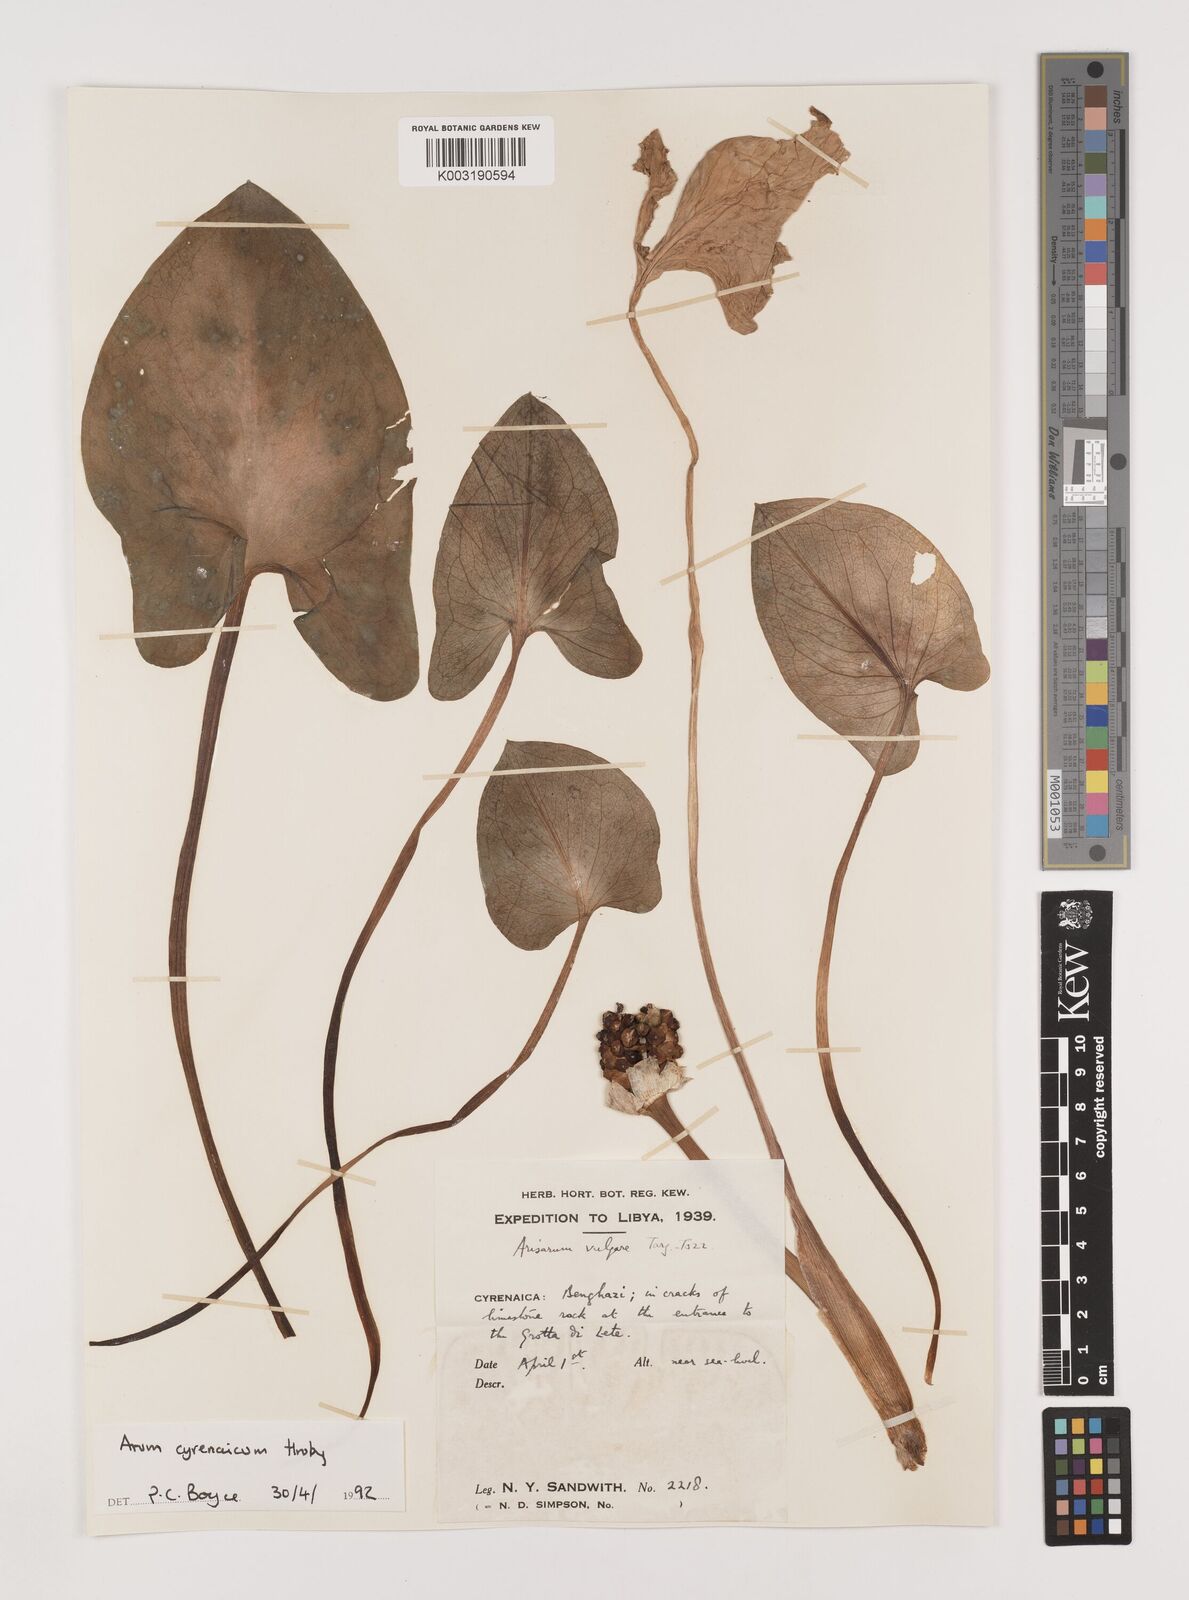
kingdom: Plantae
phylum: Tracheophyta
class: Liliopsida
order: Alismatales
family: Araceae
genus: Arum
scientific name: Arum cyrenaicum
